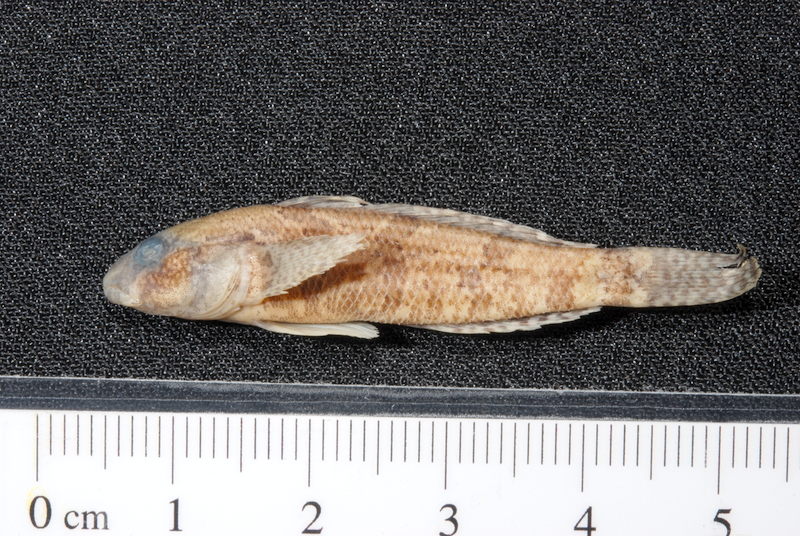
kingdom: Animalia
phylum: Chordata
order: Perciformes
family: Gobiidae
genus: Proterorhinus
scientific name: Proterorhinus semilunaris
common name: Western tubenose goby
